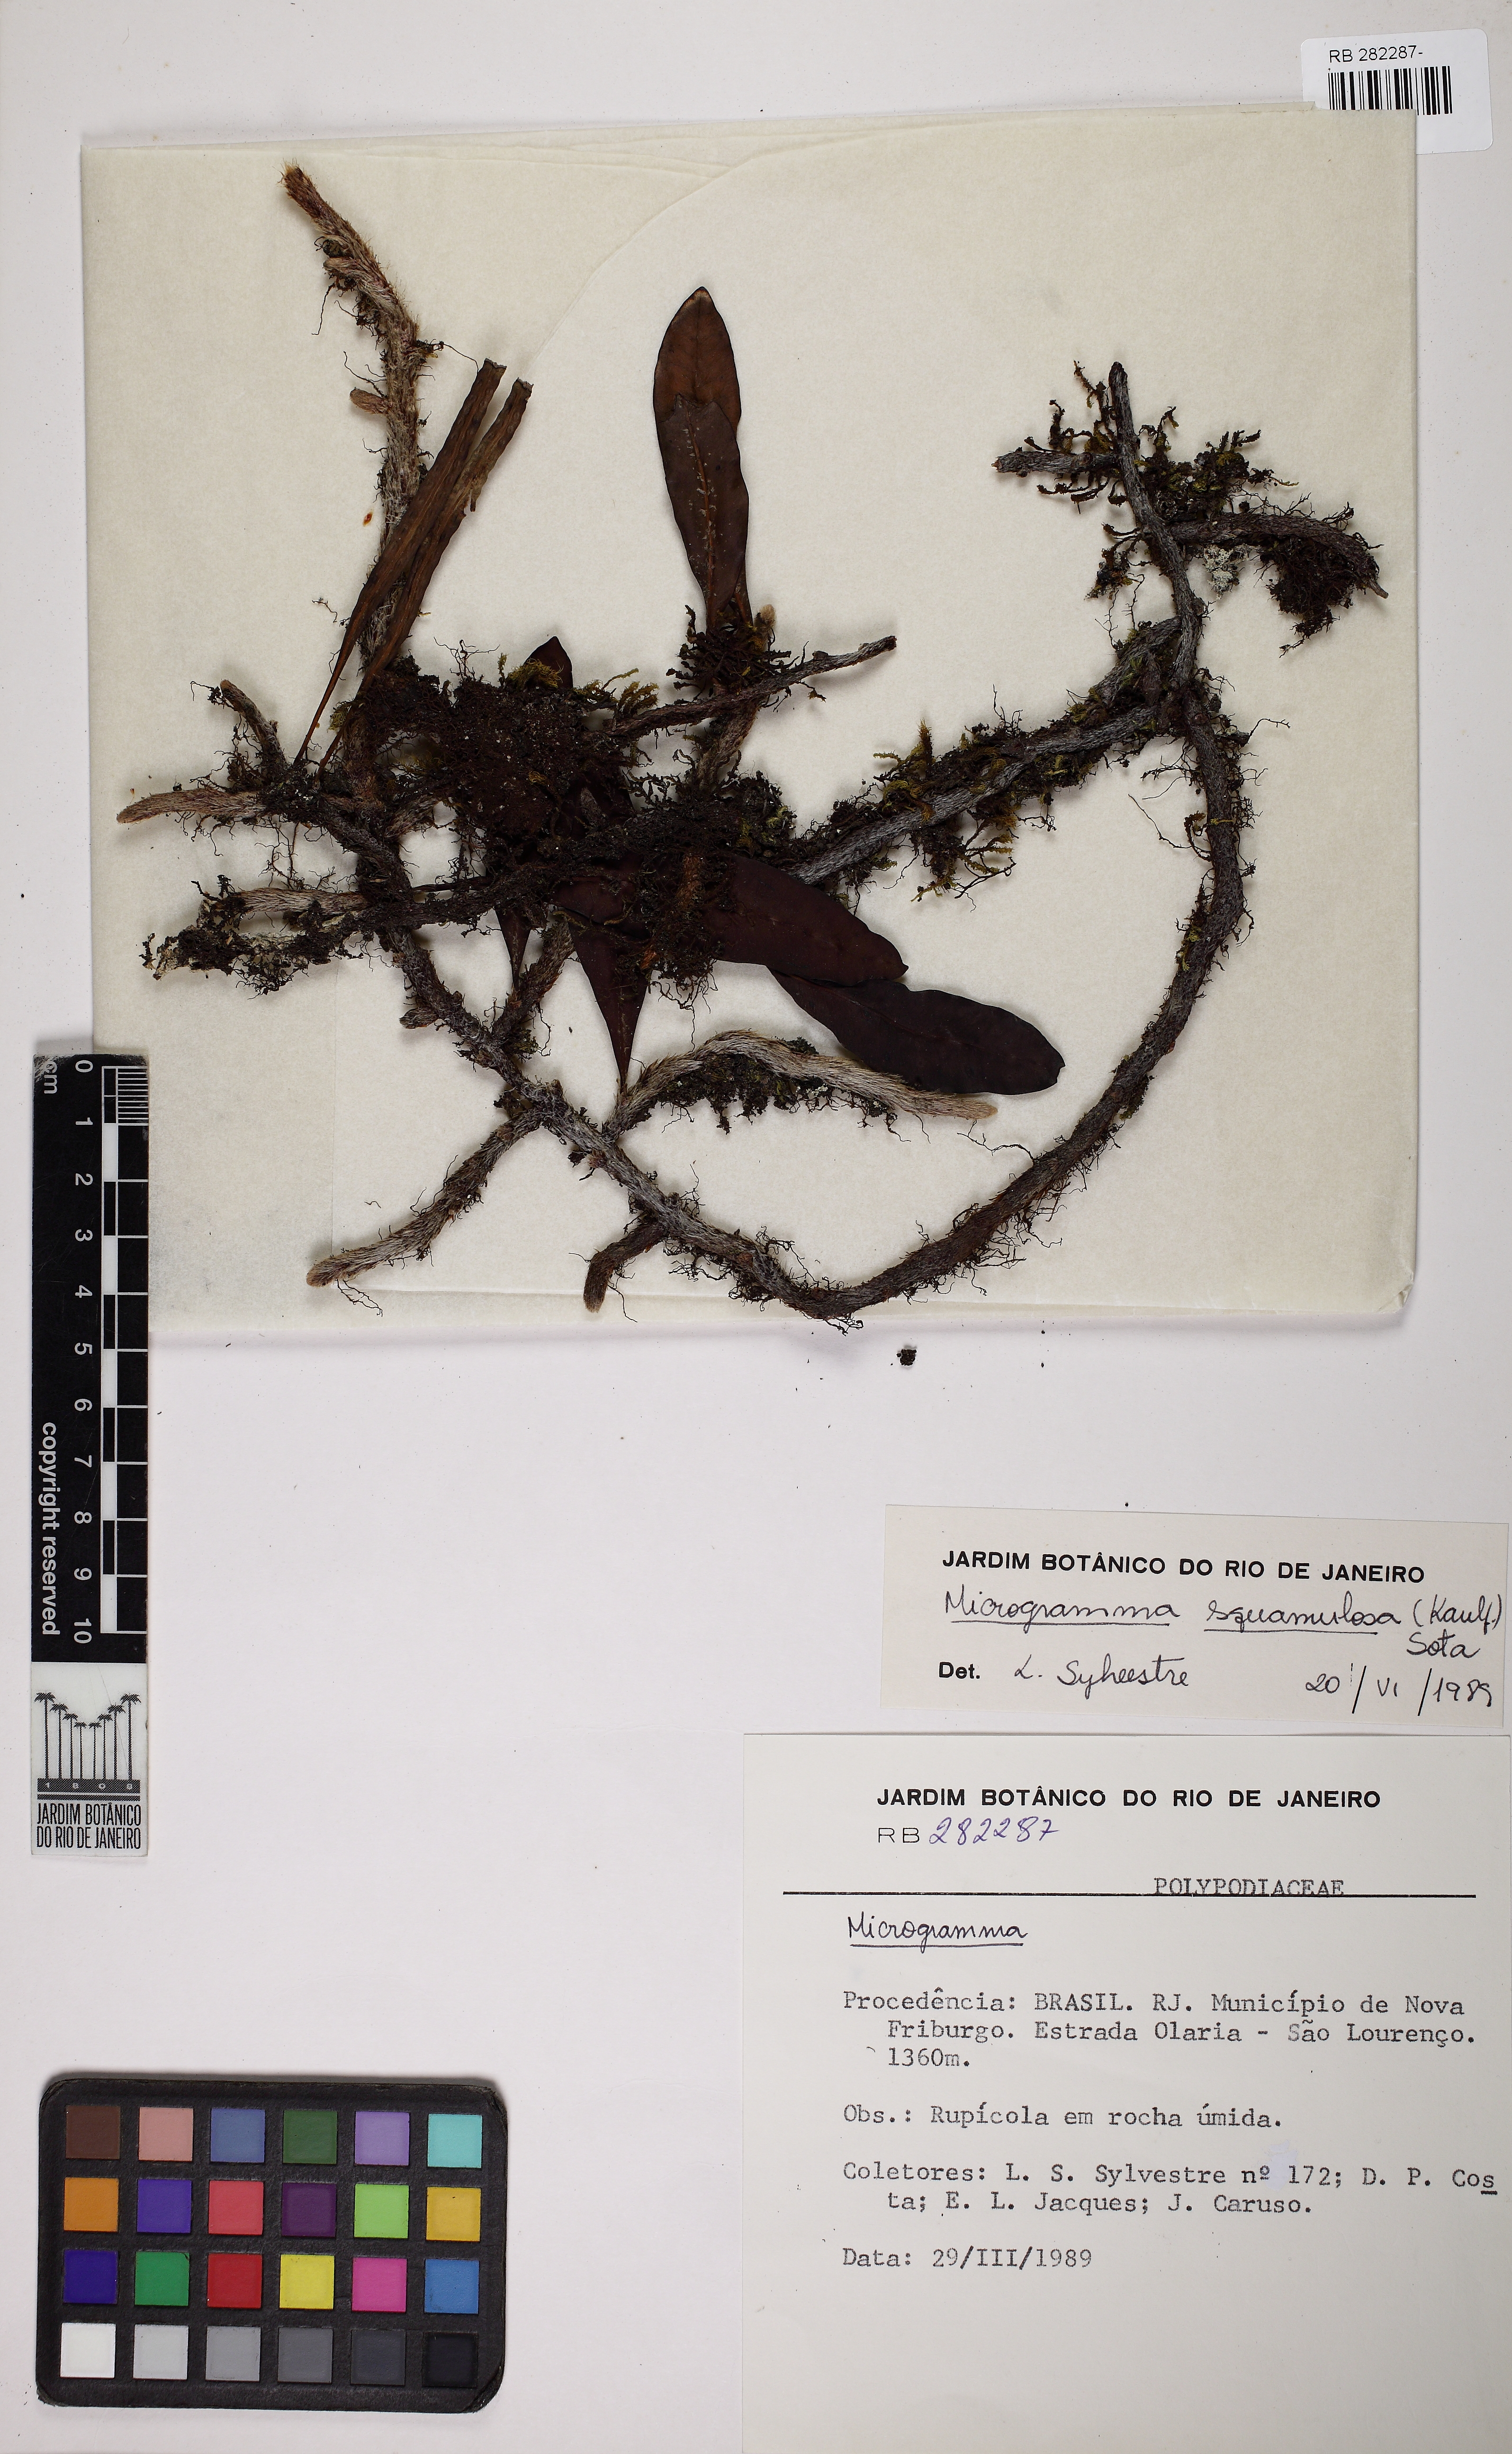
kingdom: Plantae
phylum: Tracheophyta
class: Polypodiopsida
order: Polypodiales
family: Polypodiaceae
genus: Microgramma
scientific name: Microgramma squamulosa
